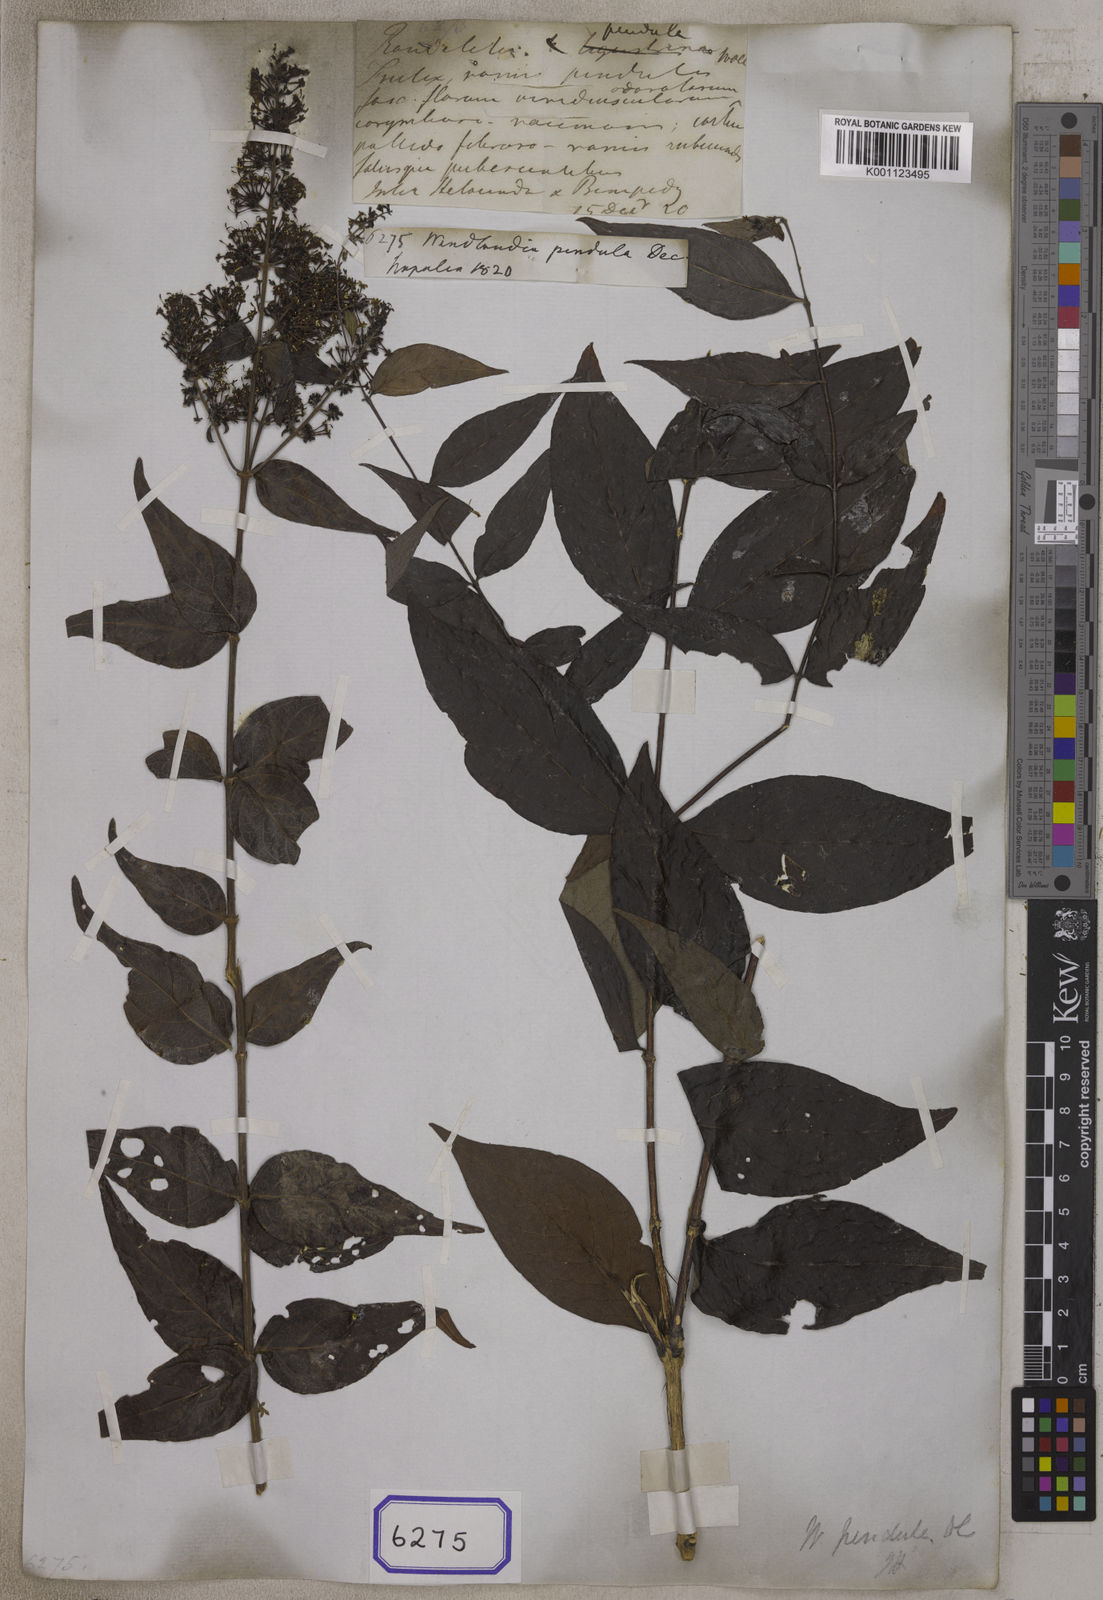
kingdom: Plantae
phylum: Tracheophyta
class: Magnoliopsida
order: Gentianales
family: Rubiaceae
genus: Wendlandia
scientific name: Wendlandia pendula
